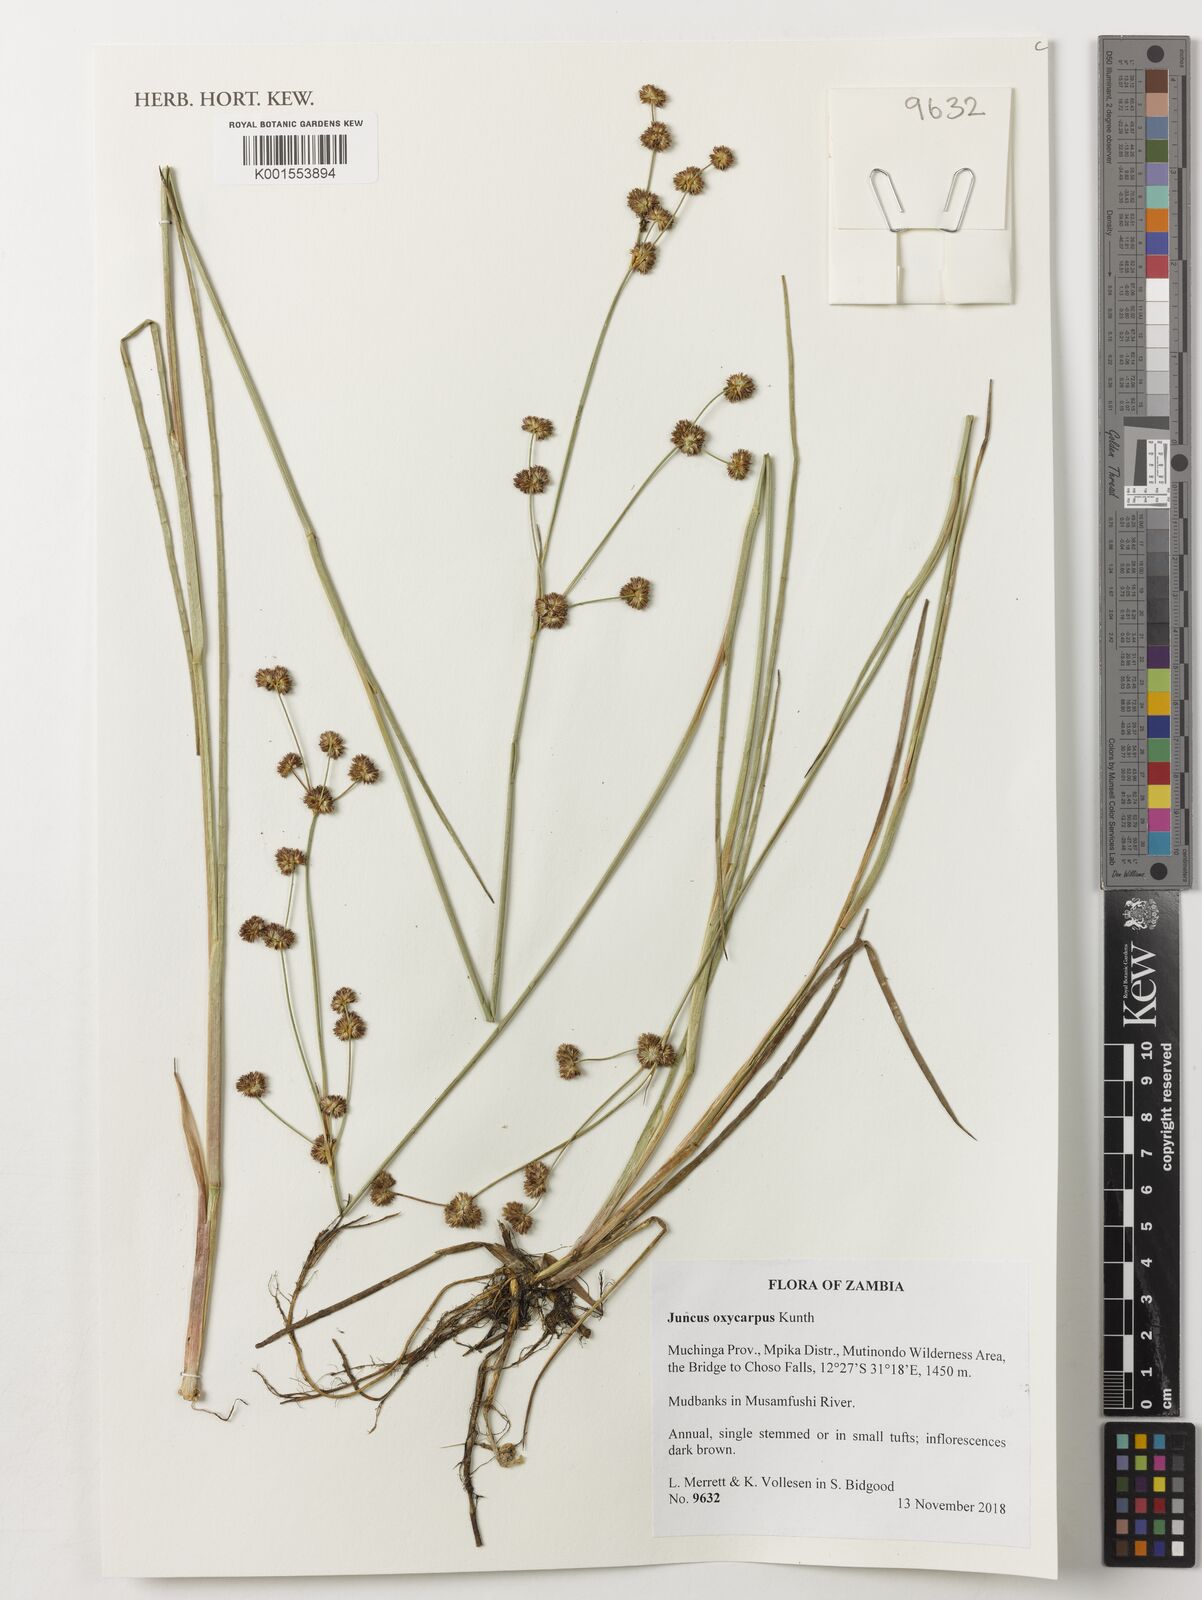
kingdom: Plantae
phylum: Tracheophyta
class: Liliopsida
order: Poales
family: Juncaceae
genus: Juncus
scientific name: Juncus oxycarpus
